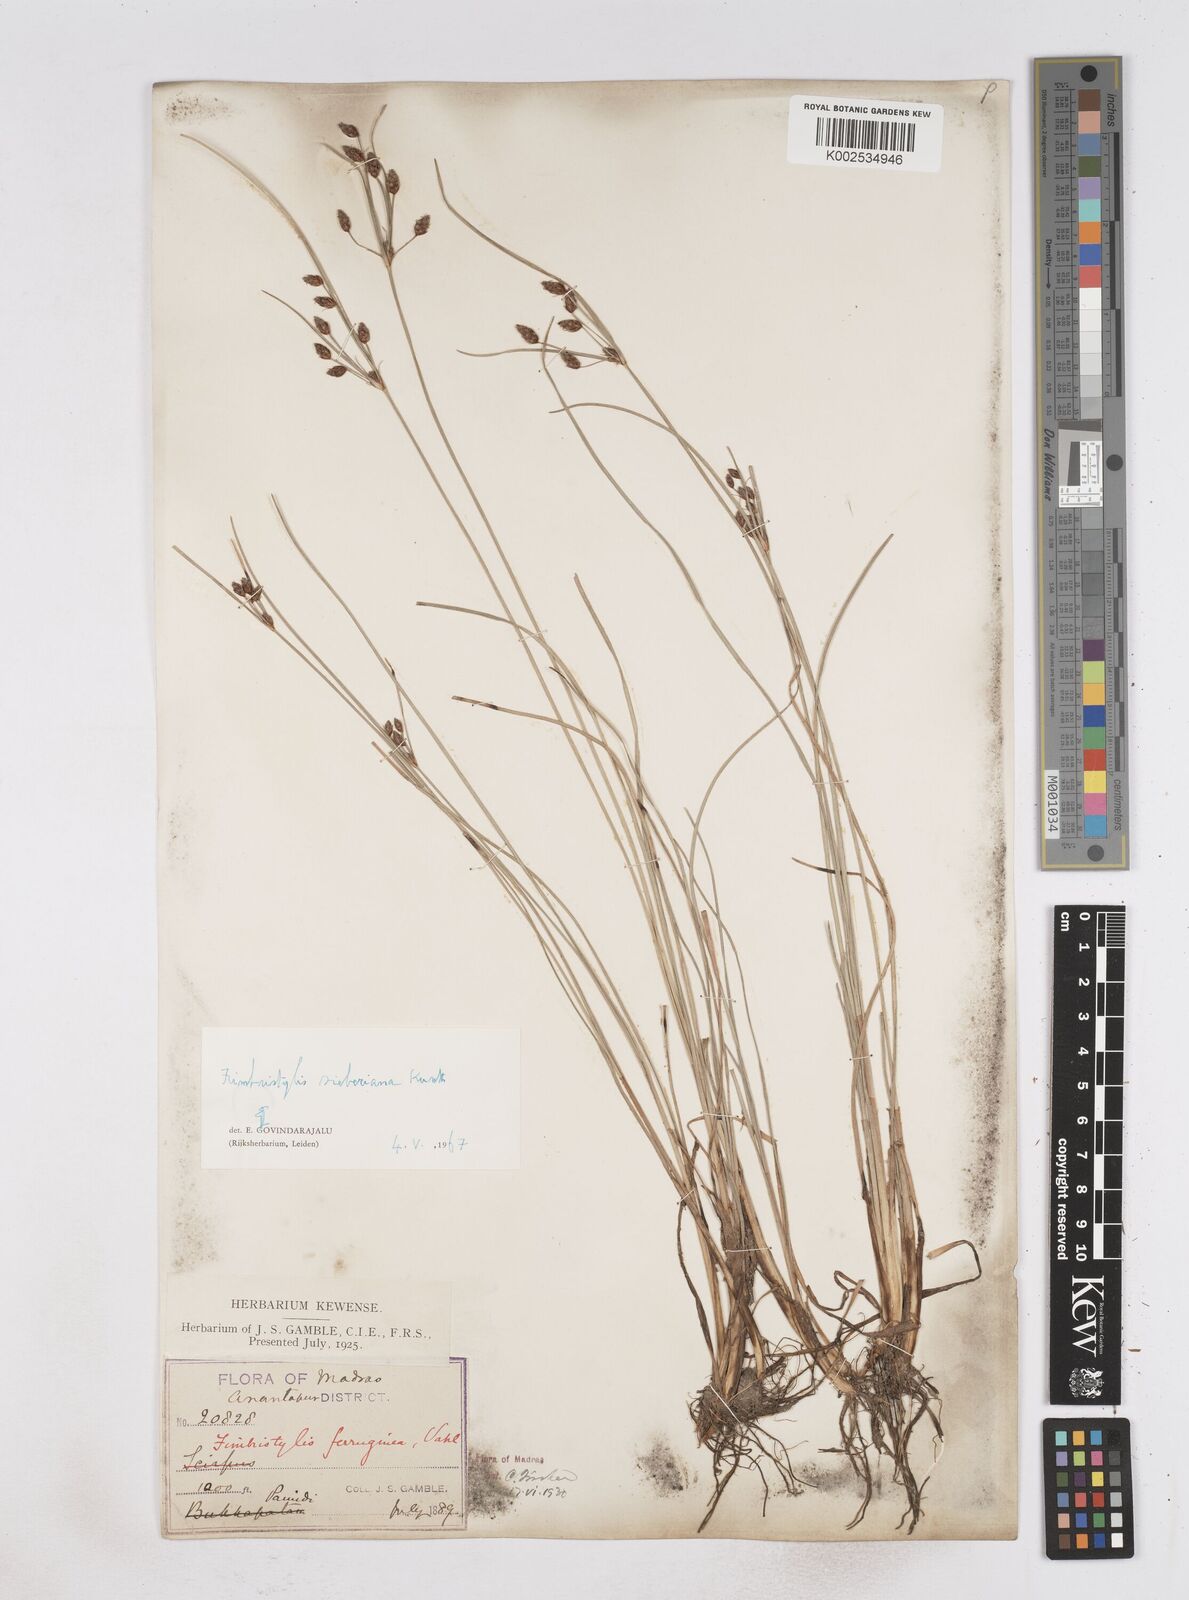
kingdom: Plantae
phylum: Tracheophyta
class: Liliopsida
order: Poales
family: Cyperaceae
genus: Fimbristylis
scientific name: Fimbristylis ferruginea
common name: West indian fimbry
